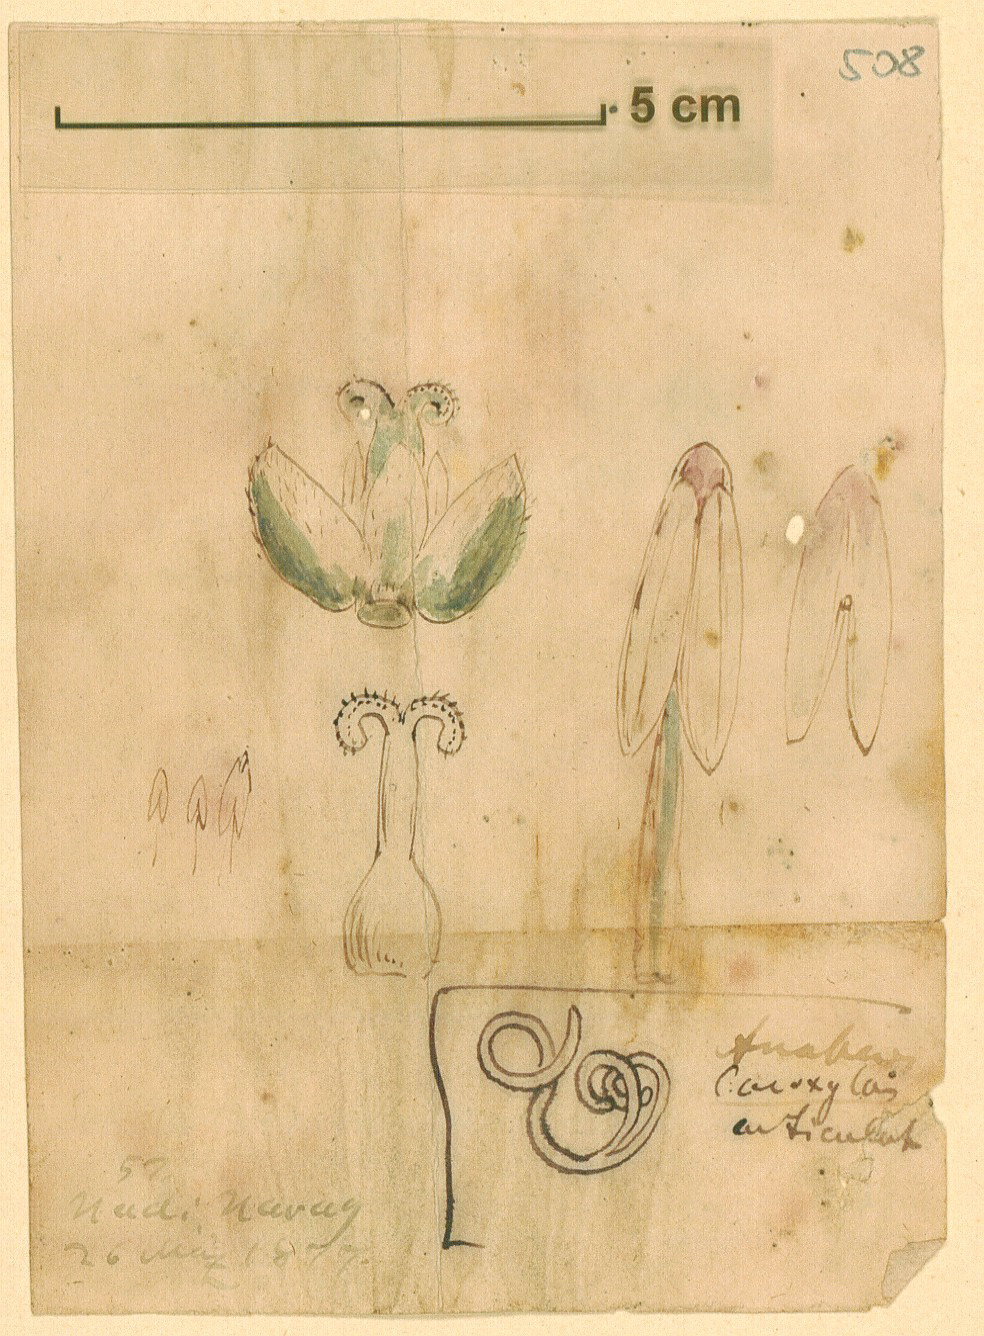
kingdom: Plantae
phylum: Tracheophyta
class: Magnoliopsida
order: Caryophyllales
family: Amaranthaceae
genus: Anabasis
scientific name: Anabasis
